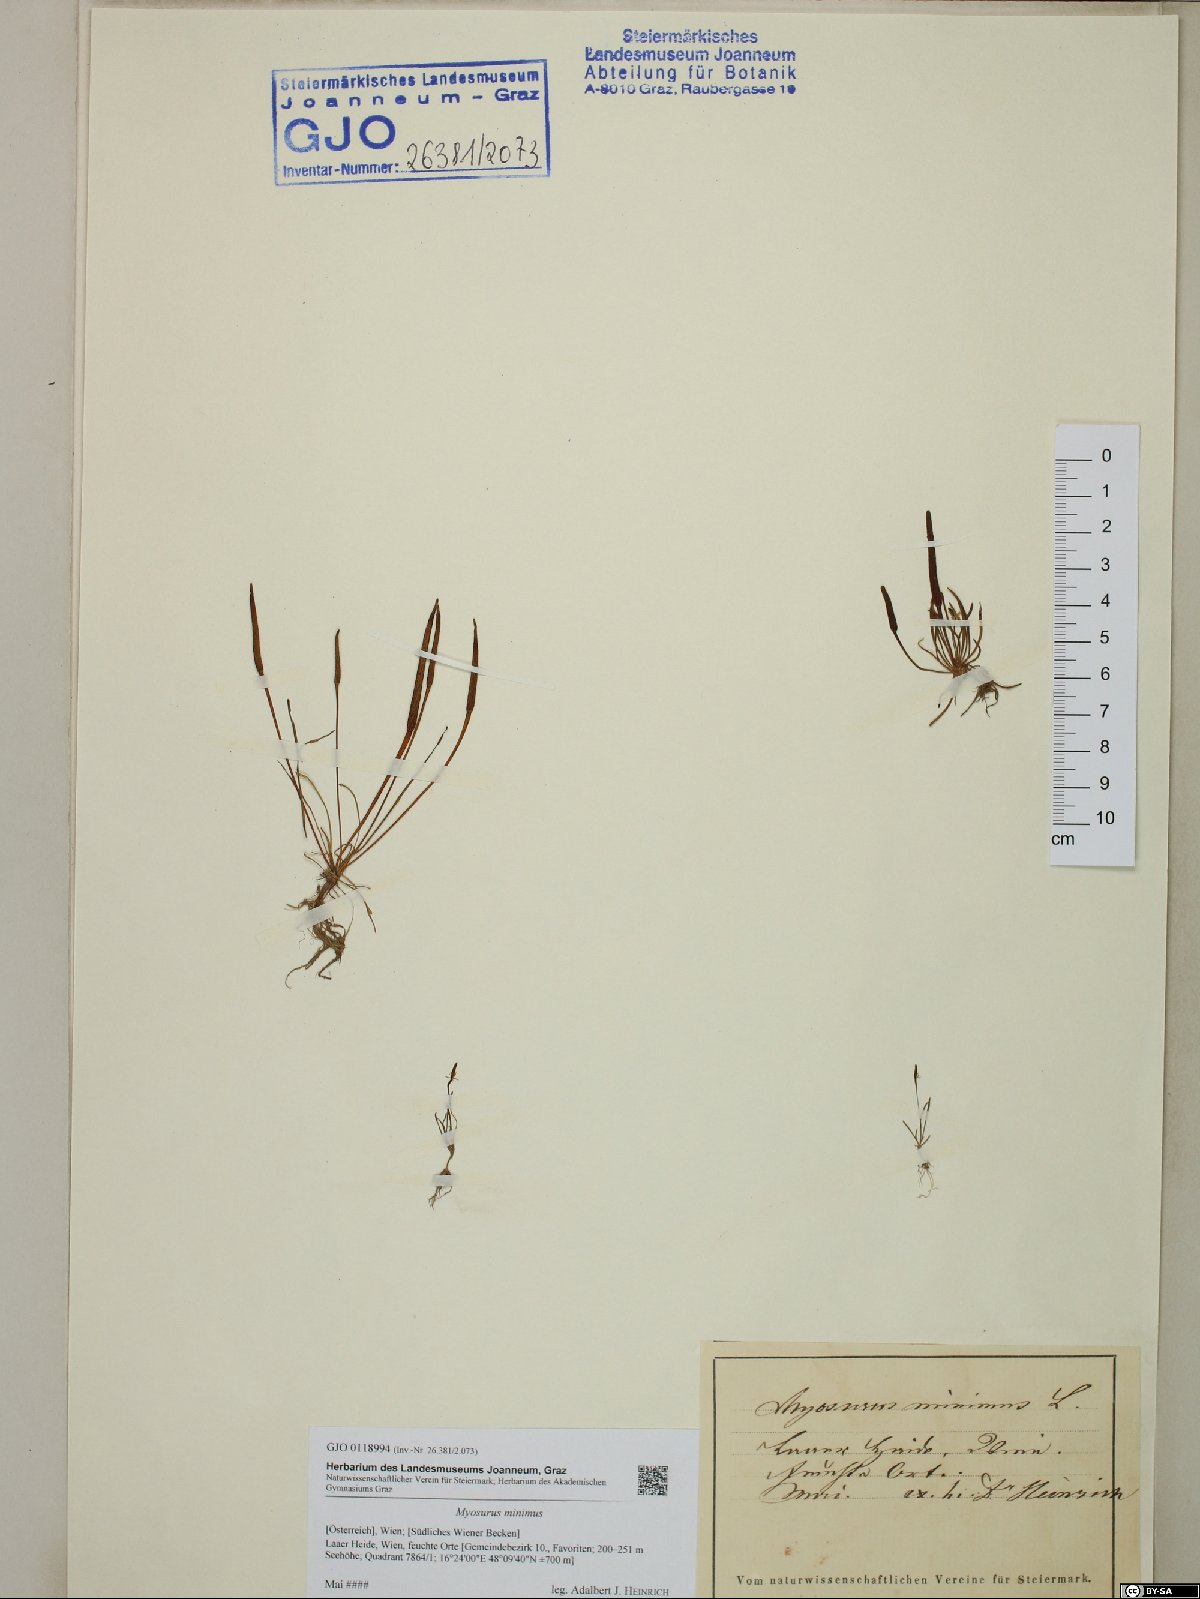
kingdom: Plantae
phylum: Tracheophyta
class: Magnoliopsida
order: Ranunculales
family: Ranunculaceae
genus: Myosurus
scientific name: Myosurus minimus
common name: Mousetail
